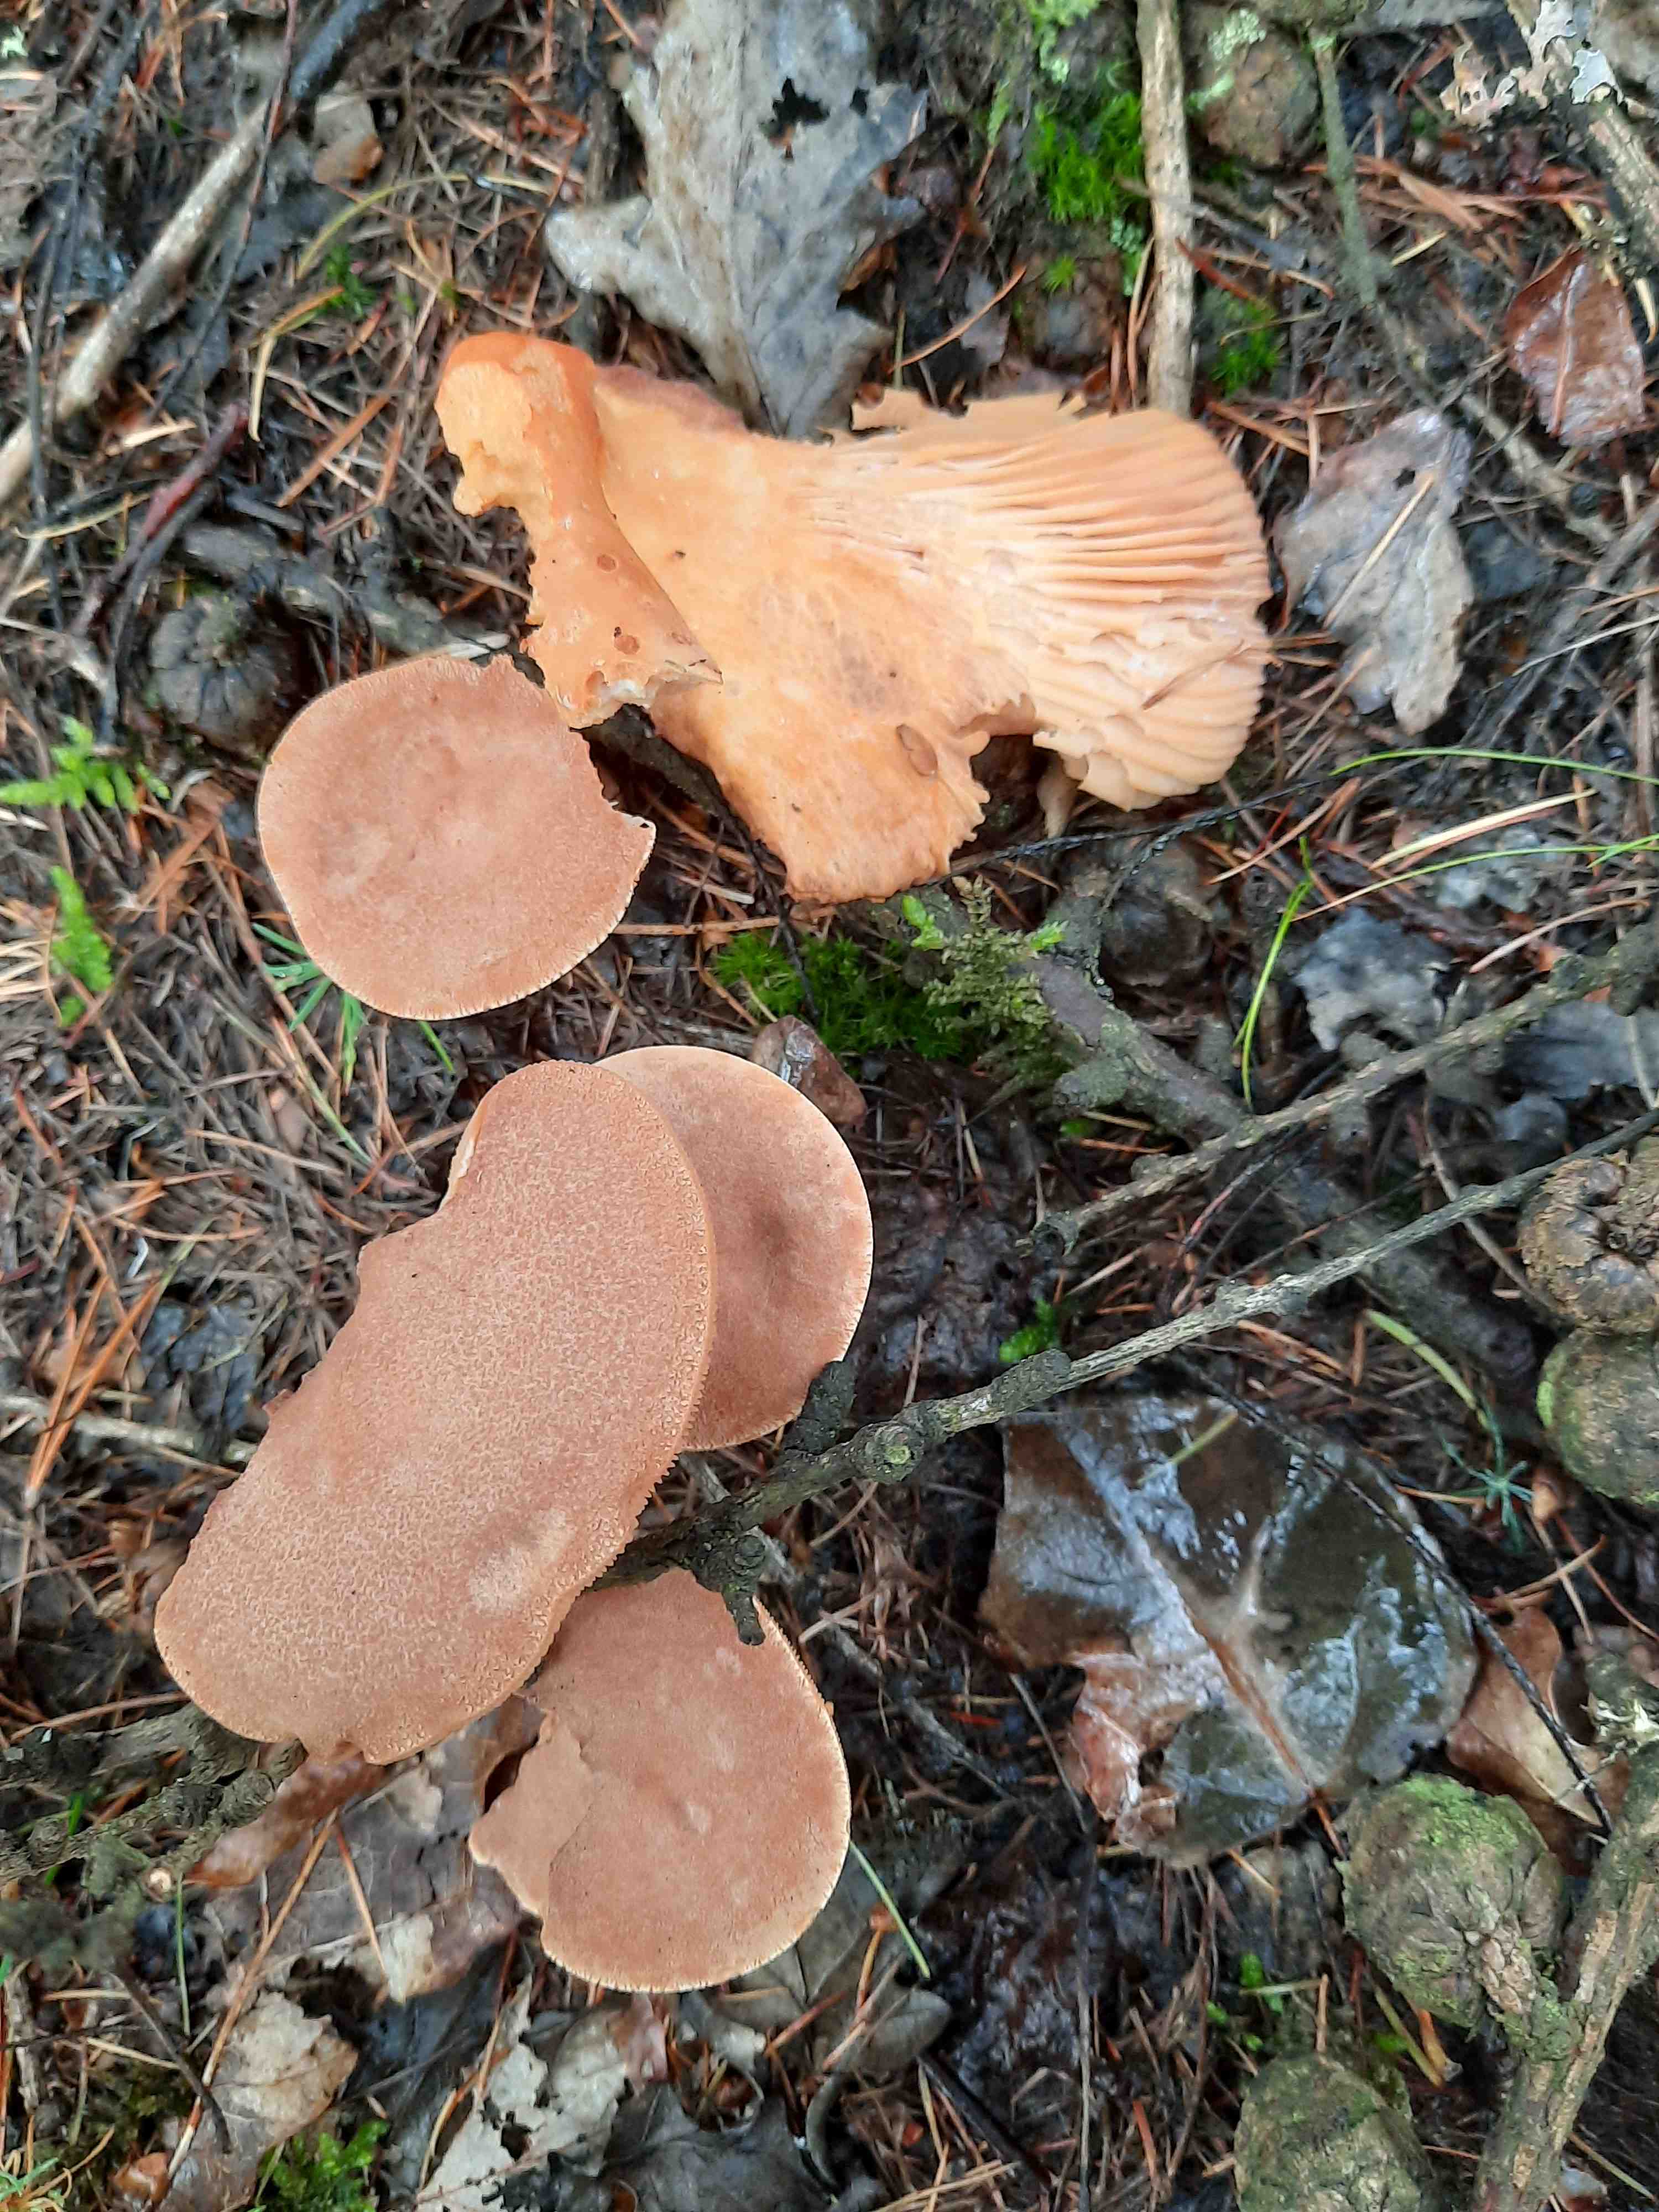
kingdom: Fungi
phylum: Basidiomycota
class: Agaricomycetes
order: Russulales
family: Russulaceae
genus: Lactarius
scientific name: Lactarius helvus
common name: mose-mælkehat
